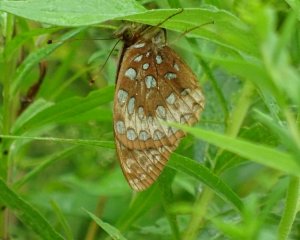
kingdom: Animalia
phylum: Arthropoda
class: Insecta
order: Lepidoptera
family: Nymphalidae
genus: Speyeria
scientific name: Speyeria cybele
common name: Great Spangled Fritillary
